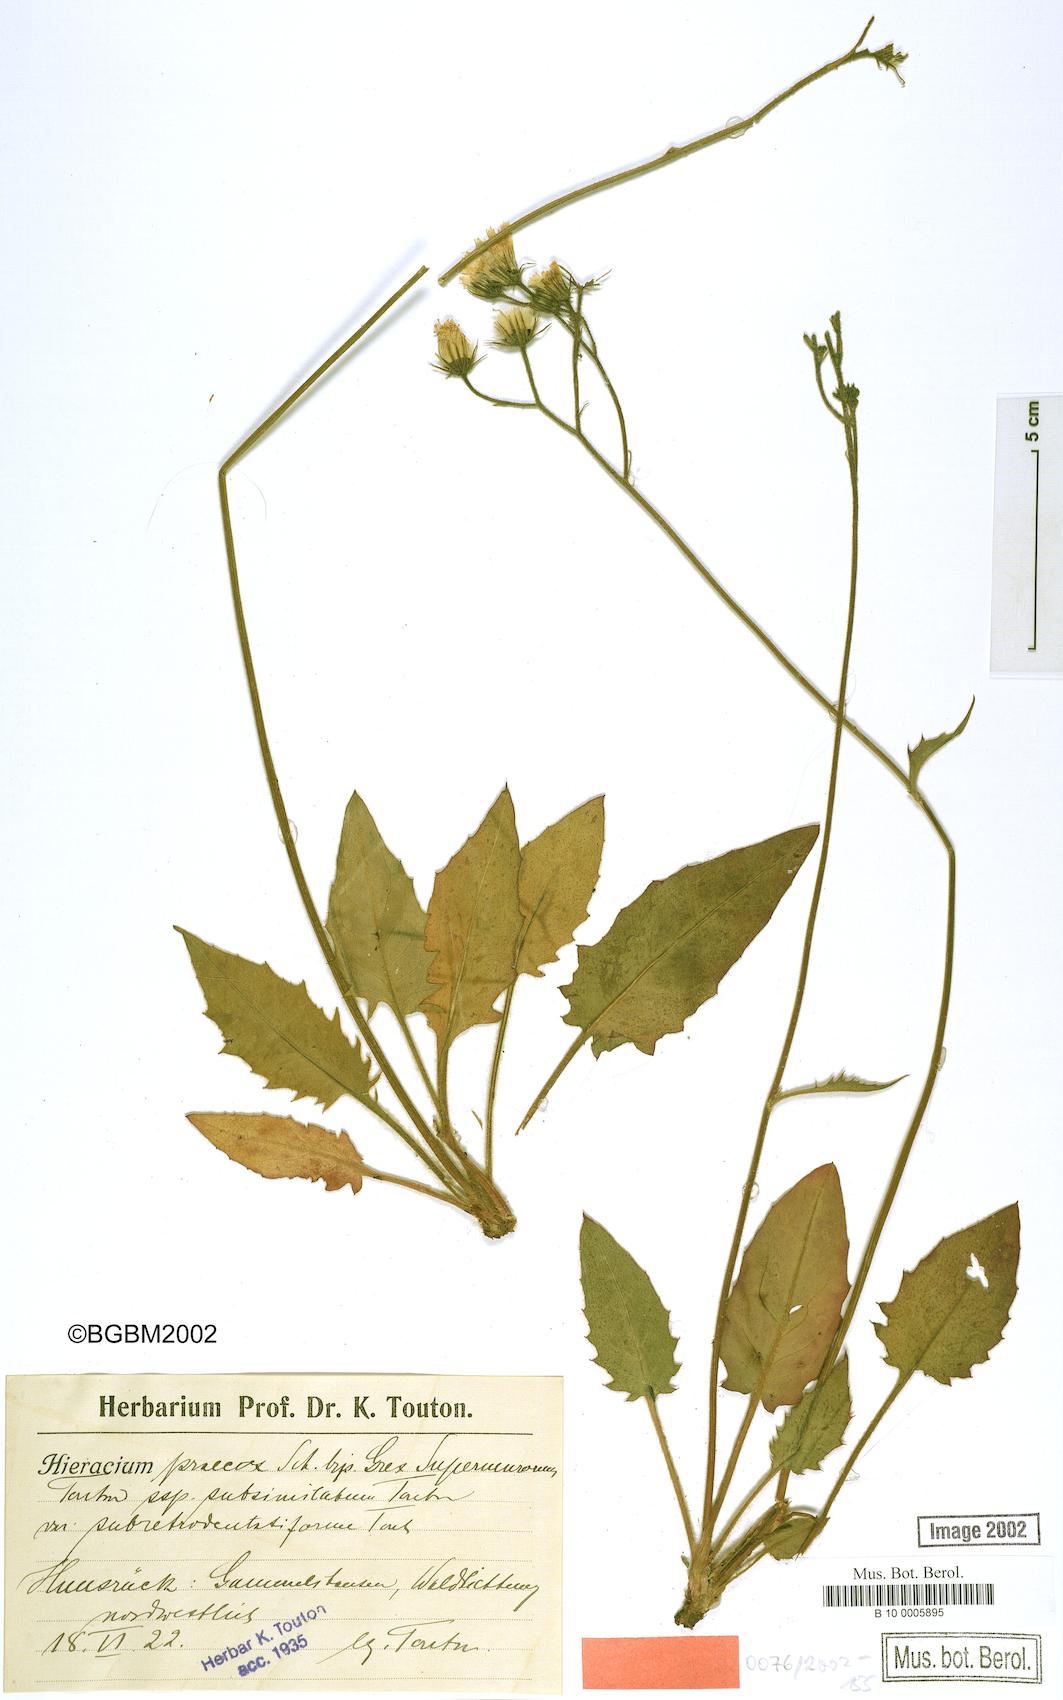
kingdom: Plantae
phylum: Tracheophyta
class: Magnoliopsida
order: Asterales
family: Asteraceae
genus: Hieracium
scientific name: Hieracium praecox
